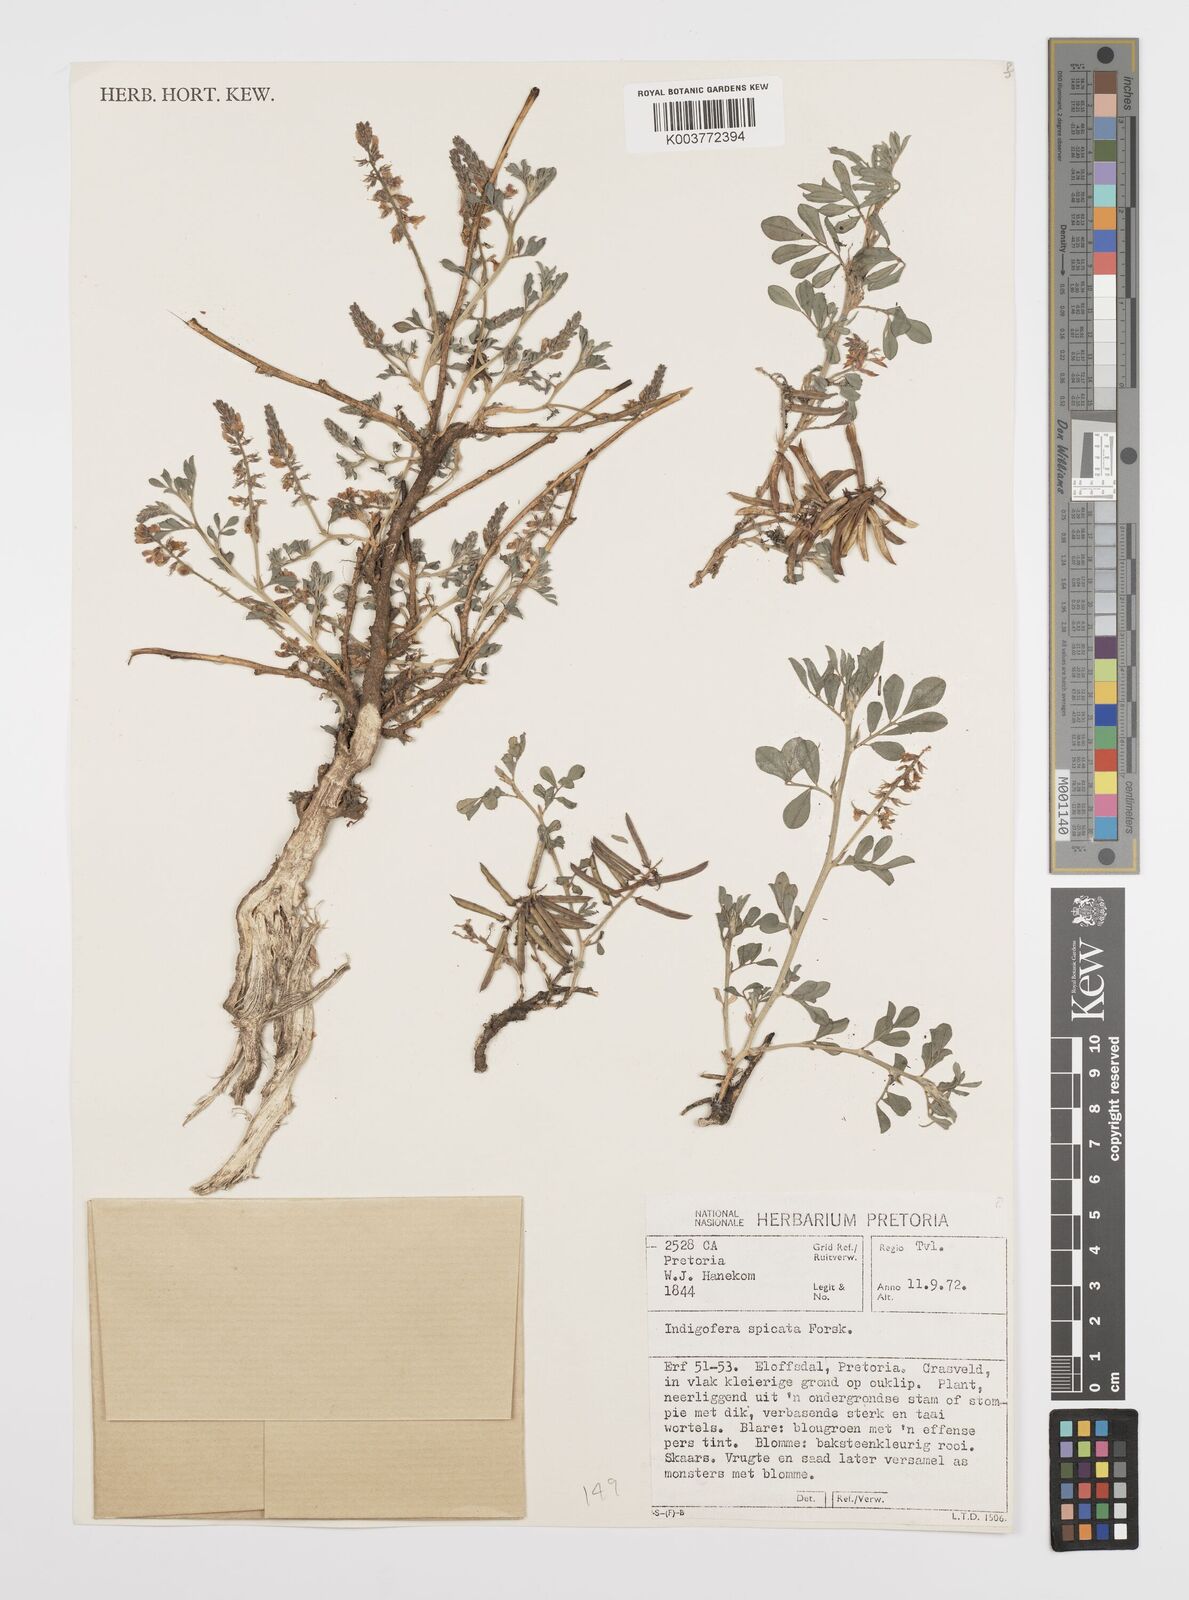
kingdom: Plantae
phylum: Tracheophyta
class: Magnoliopsida
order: Fabales
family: Fabaceae
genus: Indigofera
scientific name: Indigofera spicata
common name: Creeping indigo
